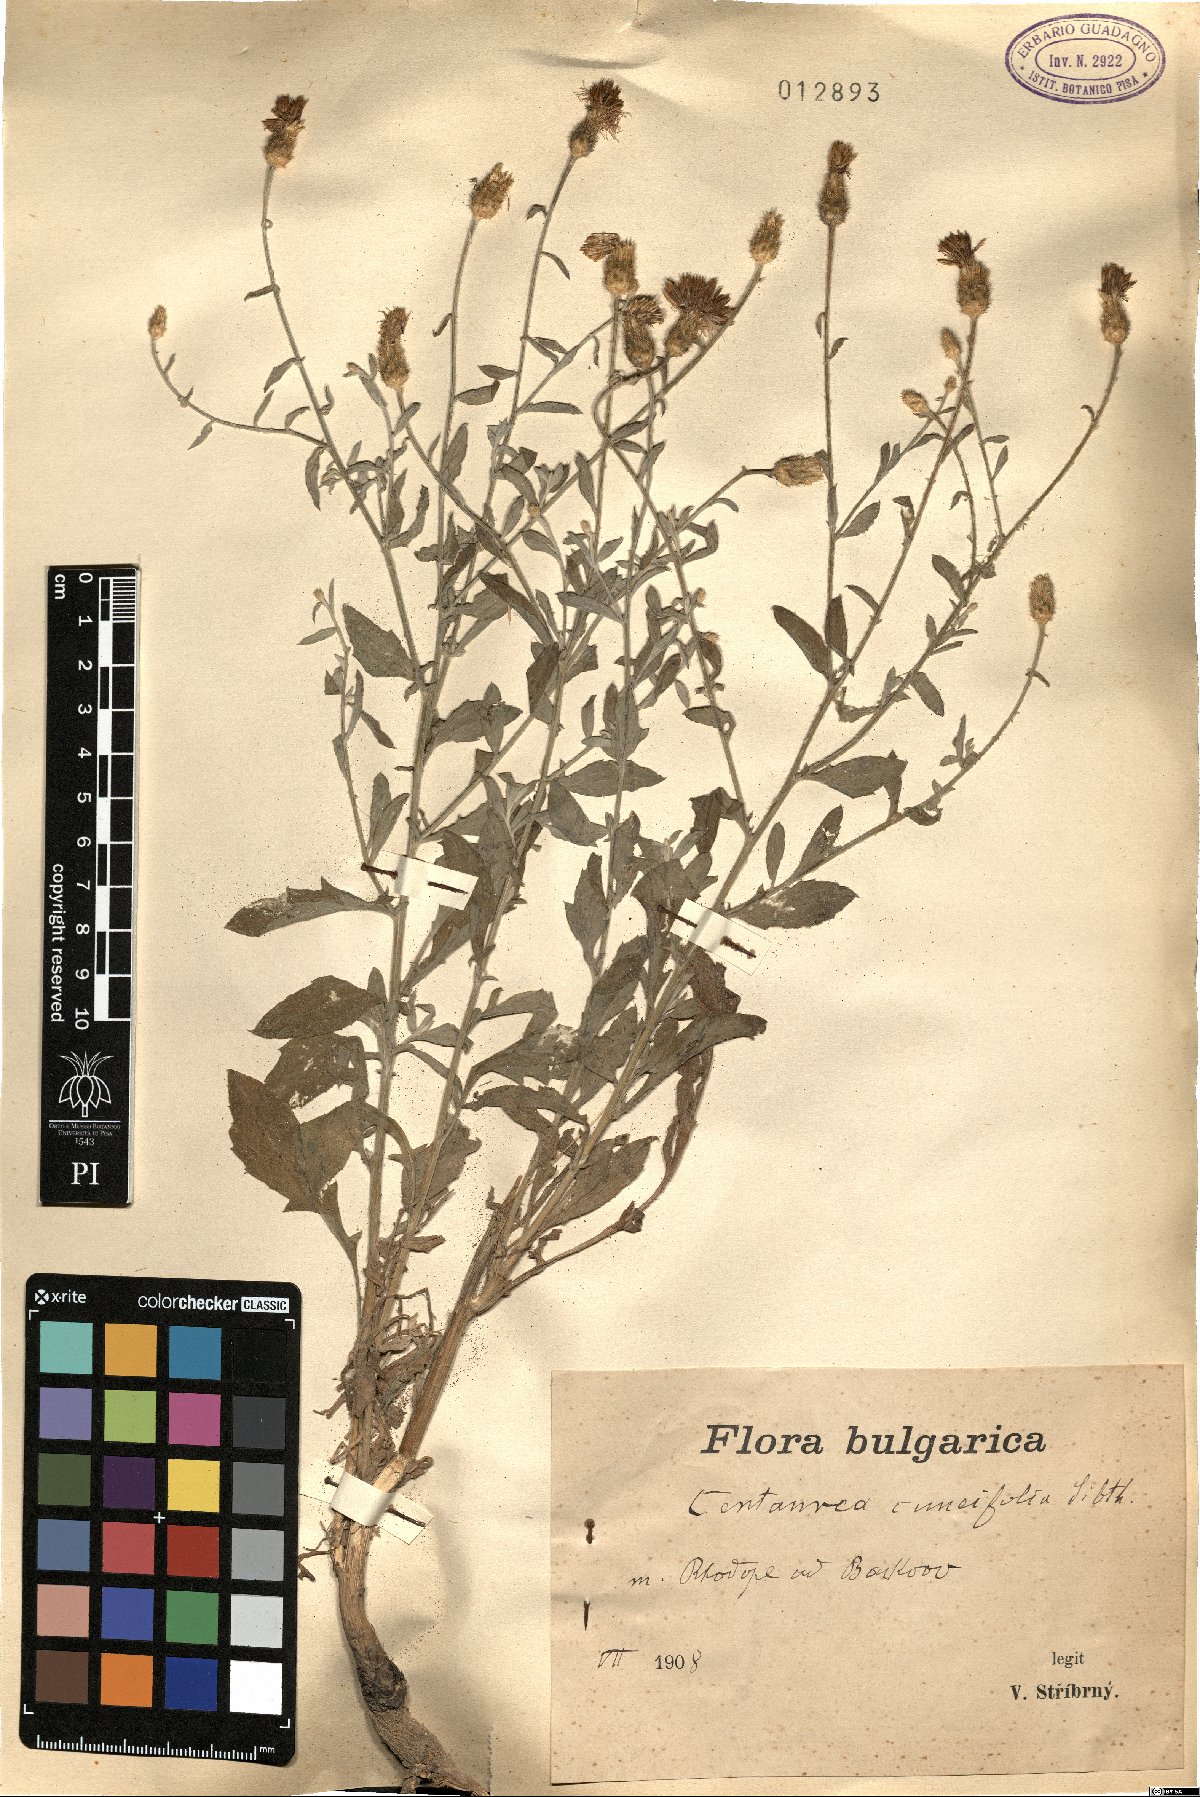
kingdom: Plantae
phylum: Tracheophyta
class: Magnoliopsida
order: Asterales
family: Asteraceae
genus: Centaurea
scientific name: Centaurea cuneifolia
